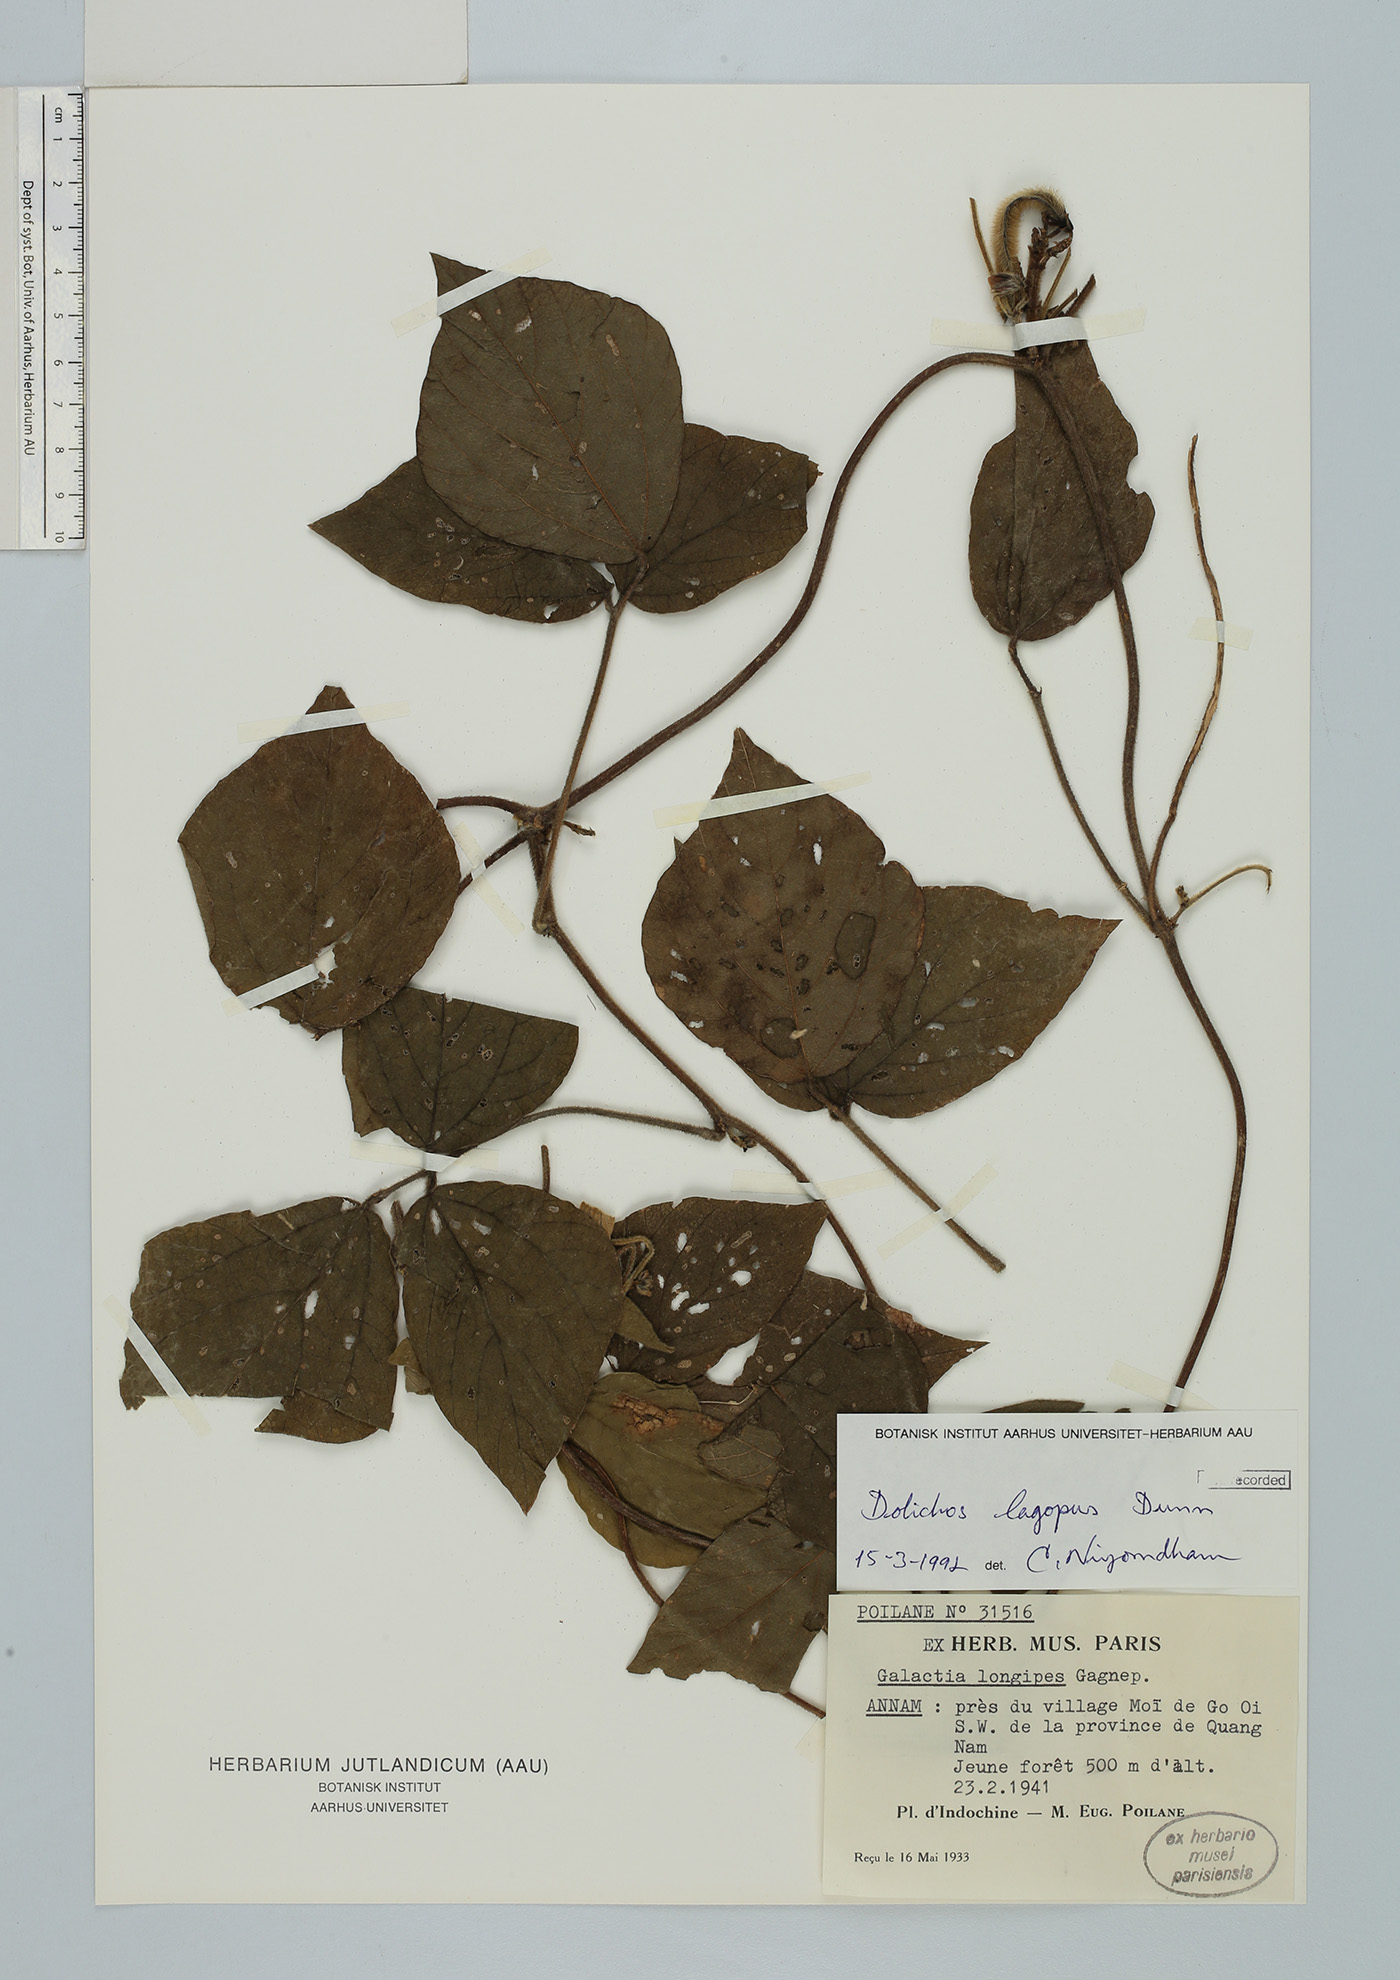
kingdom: Plantae
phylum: Tracheophyta
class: Magnoliopsida
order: Fabales
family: Fabaceae
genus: Sinodolichos
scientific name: Sinodolichos lagopus
